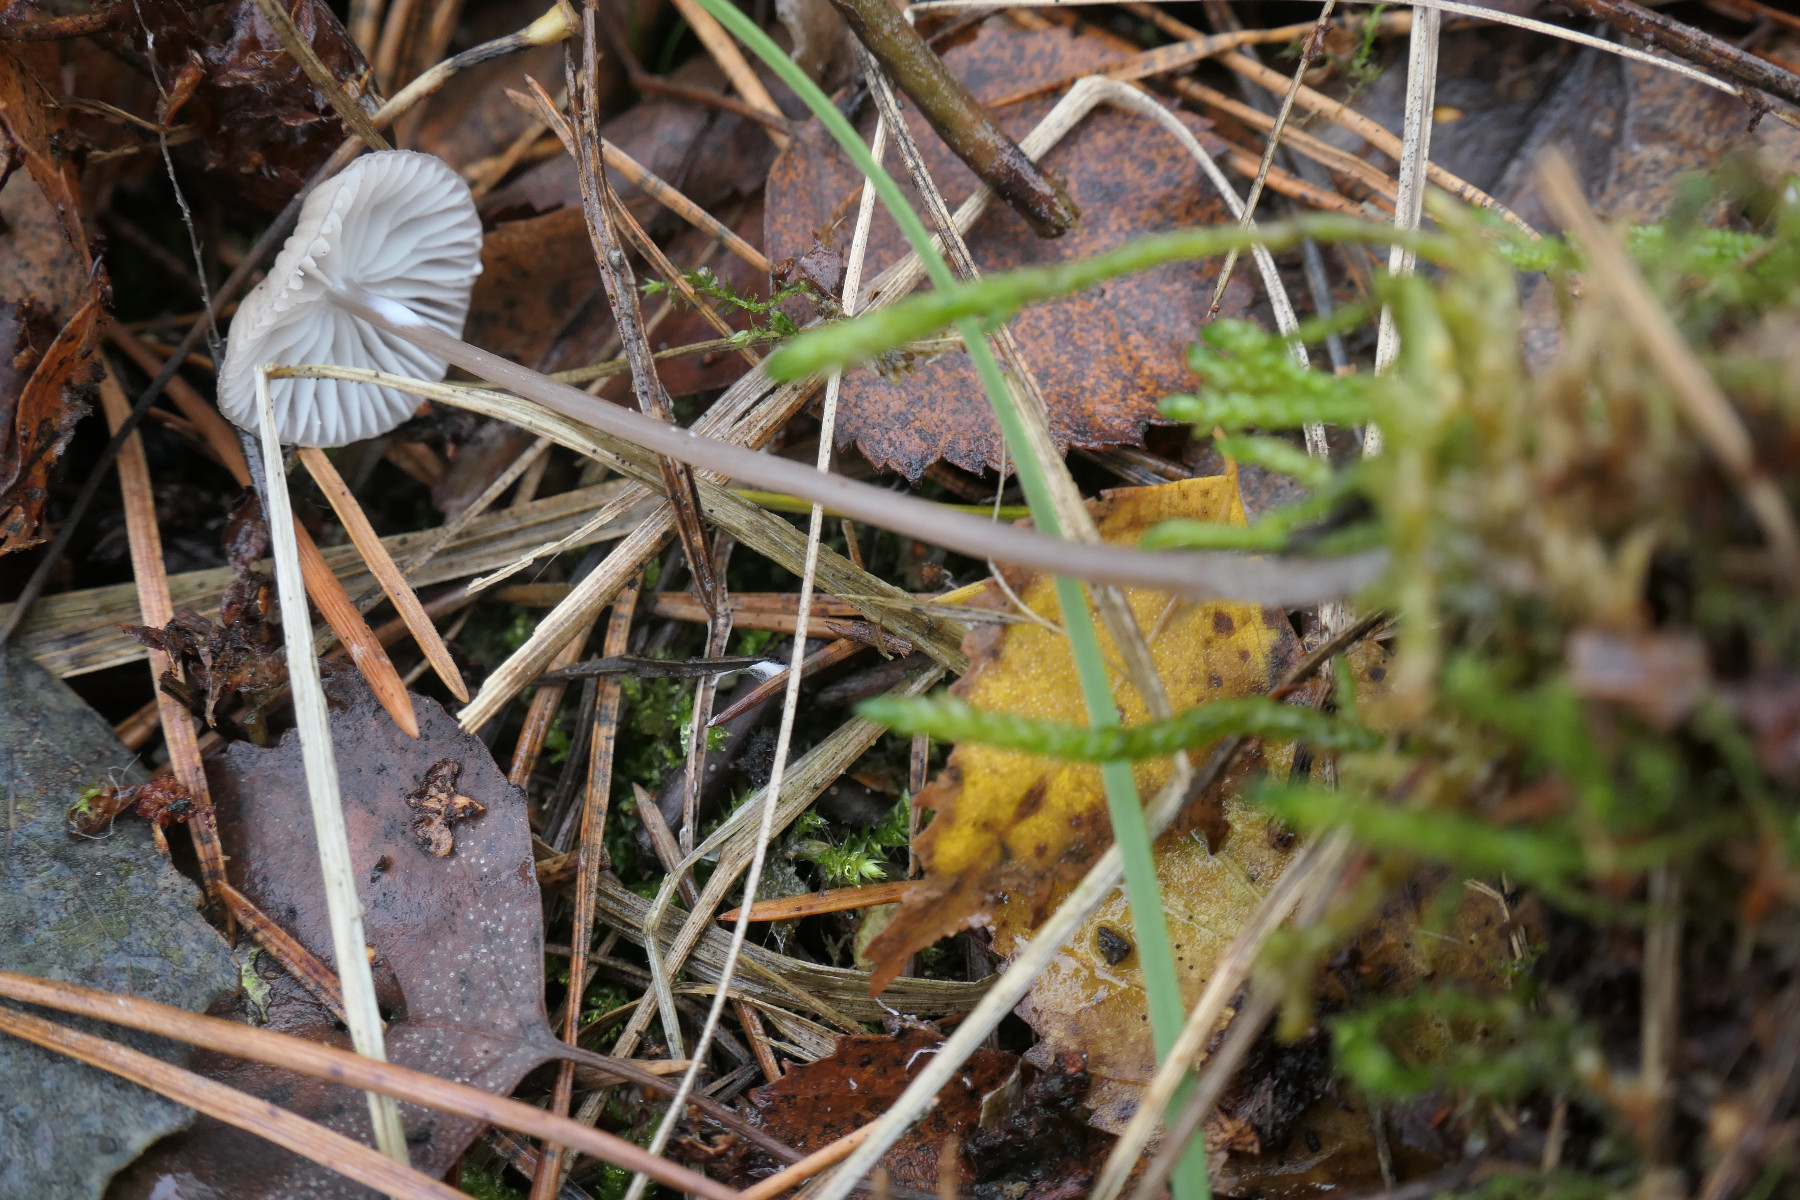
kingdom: Fungi
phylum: Basidiomycota
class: Agaricomycetes
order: Agaricales
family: Mycenaceae
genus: Mycena
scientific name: Mycena galopus
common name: hvidmælket huesvamp
